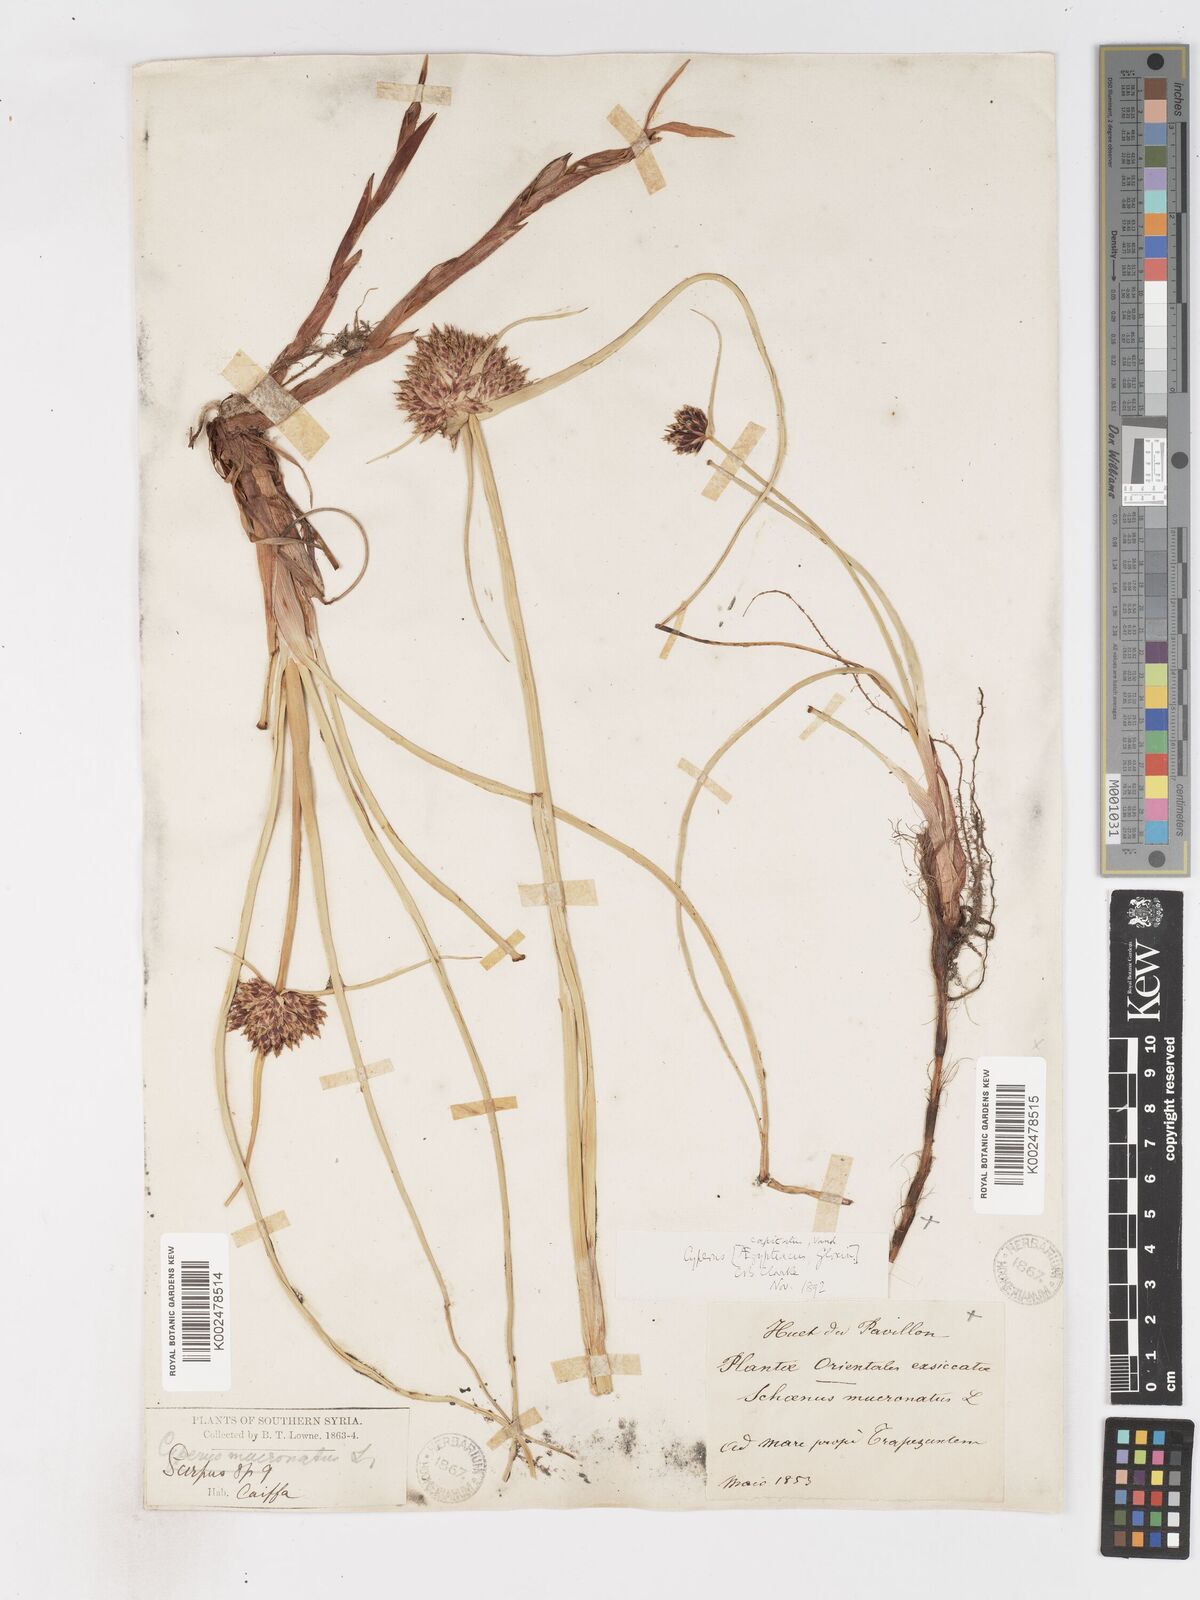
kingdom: Plantae
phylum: Tracheophyta
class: Liliopsida
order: Poales
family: Cyperaceae
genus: Cyperus
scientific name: Cyperus capitatus
